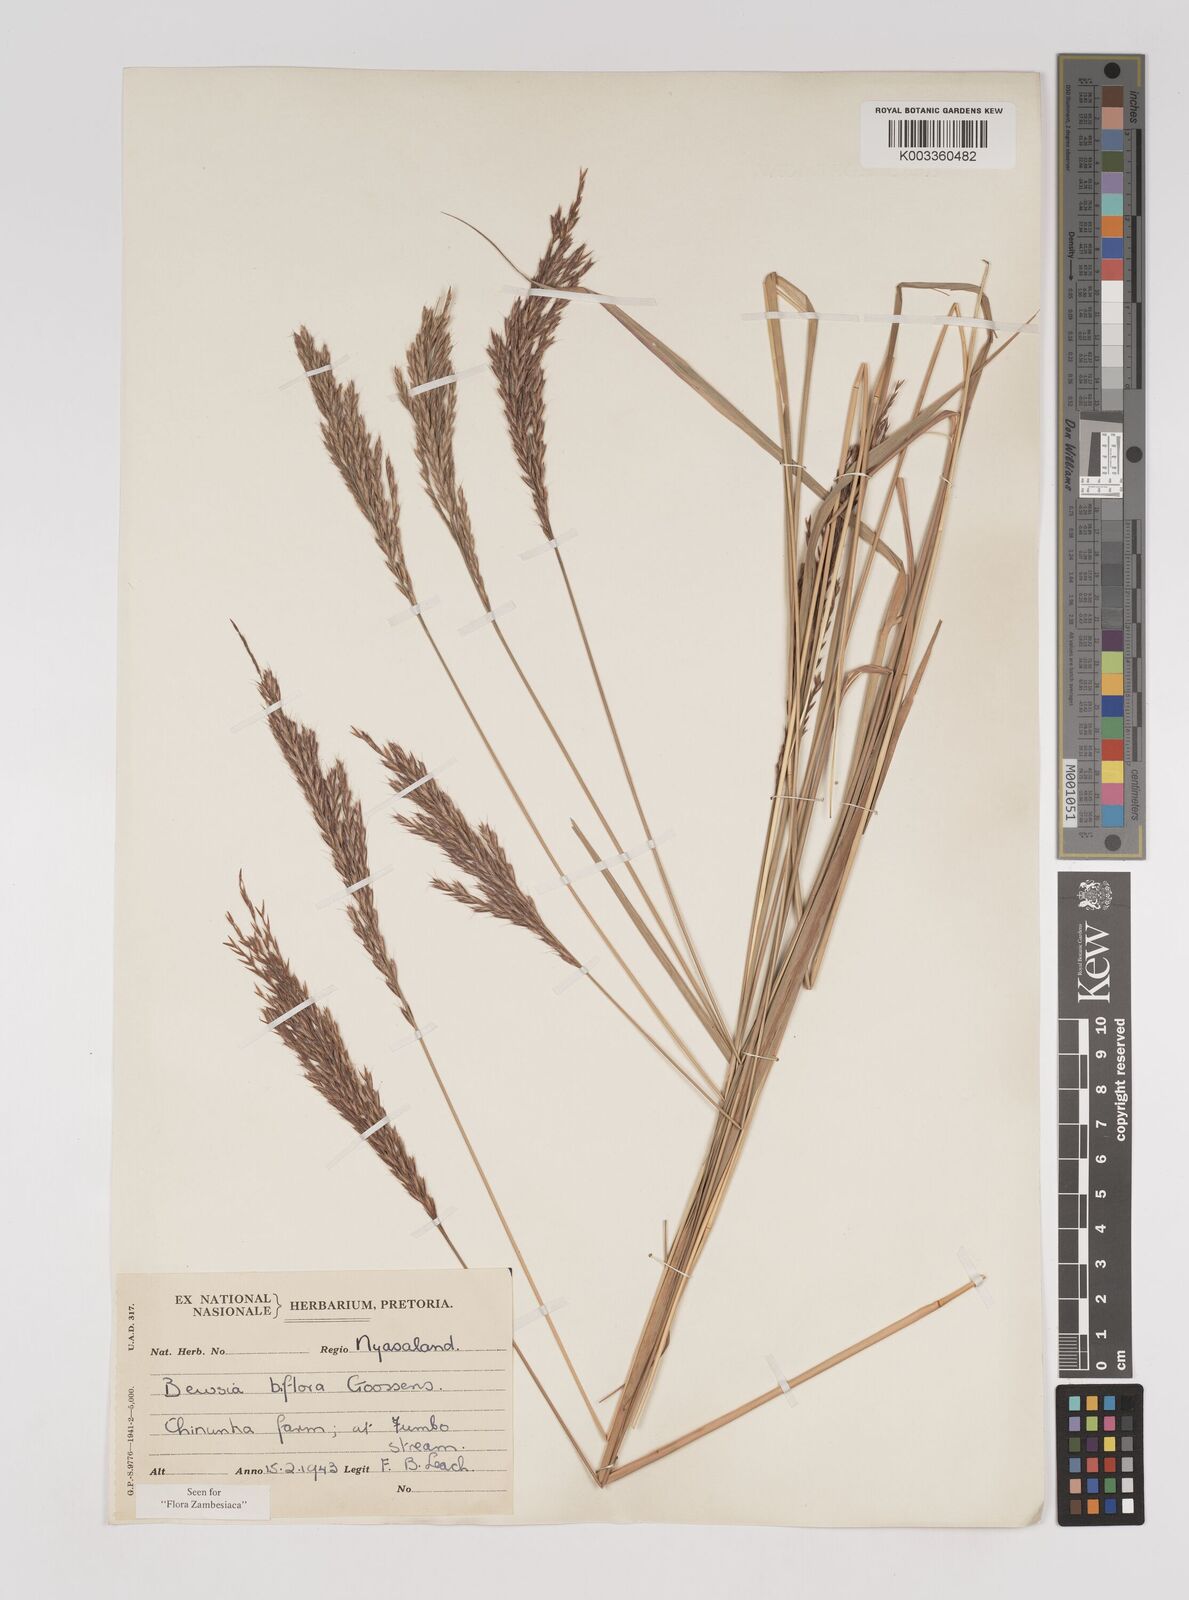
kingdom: Plantae
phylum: Tracheophyta
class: Liliopsida
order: Poales
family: Poaceae
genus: Bewsia
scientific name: Bewsia biflora
